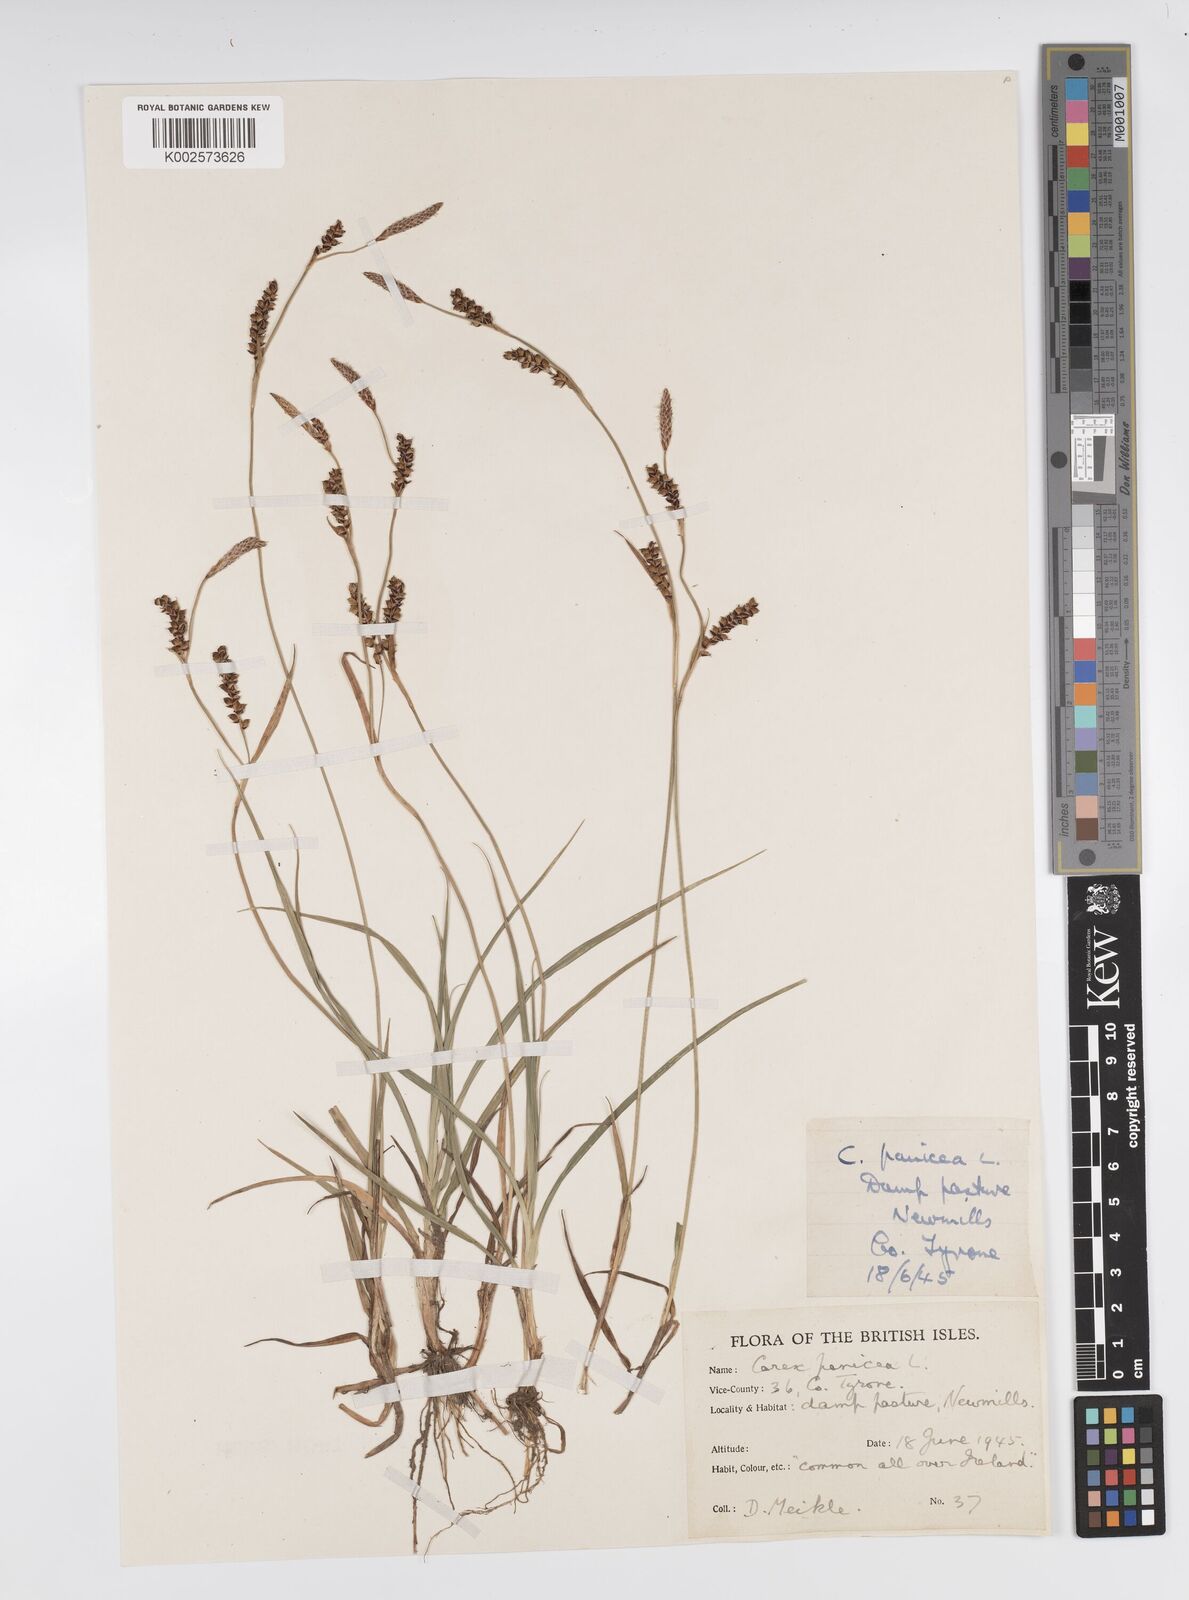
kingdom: Plantae
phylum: Tracheophyta
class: Liliopsida
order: Poales
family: Cyperaceae
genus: Carex
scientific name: Carex panicea
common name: Carnation sedge
